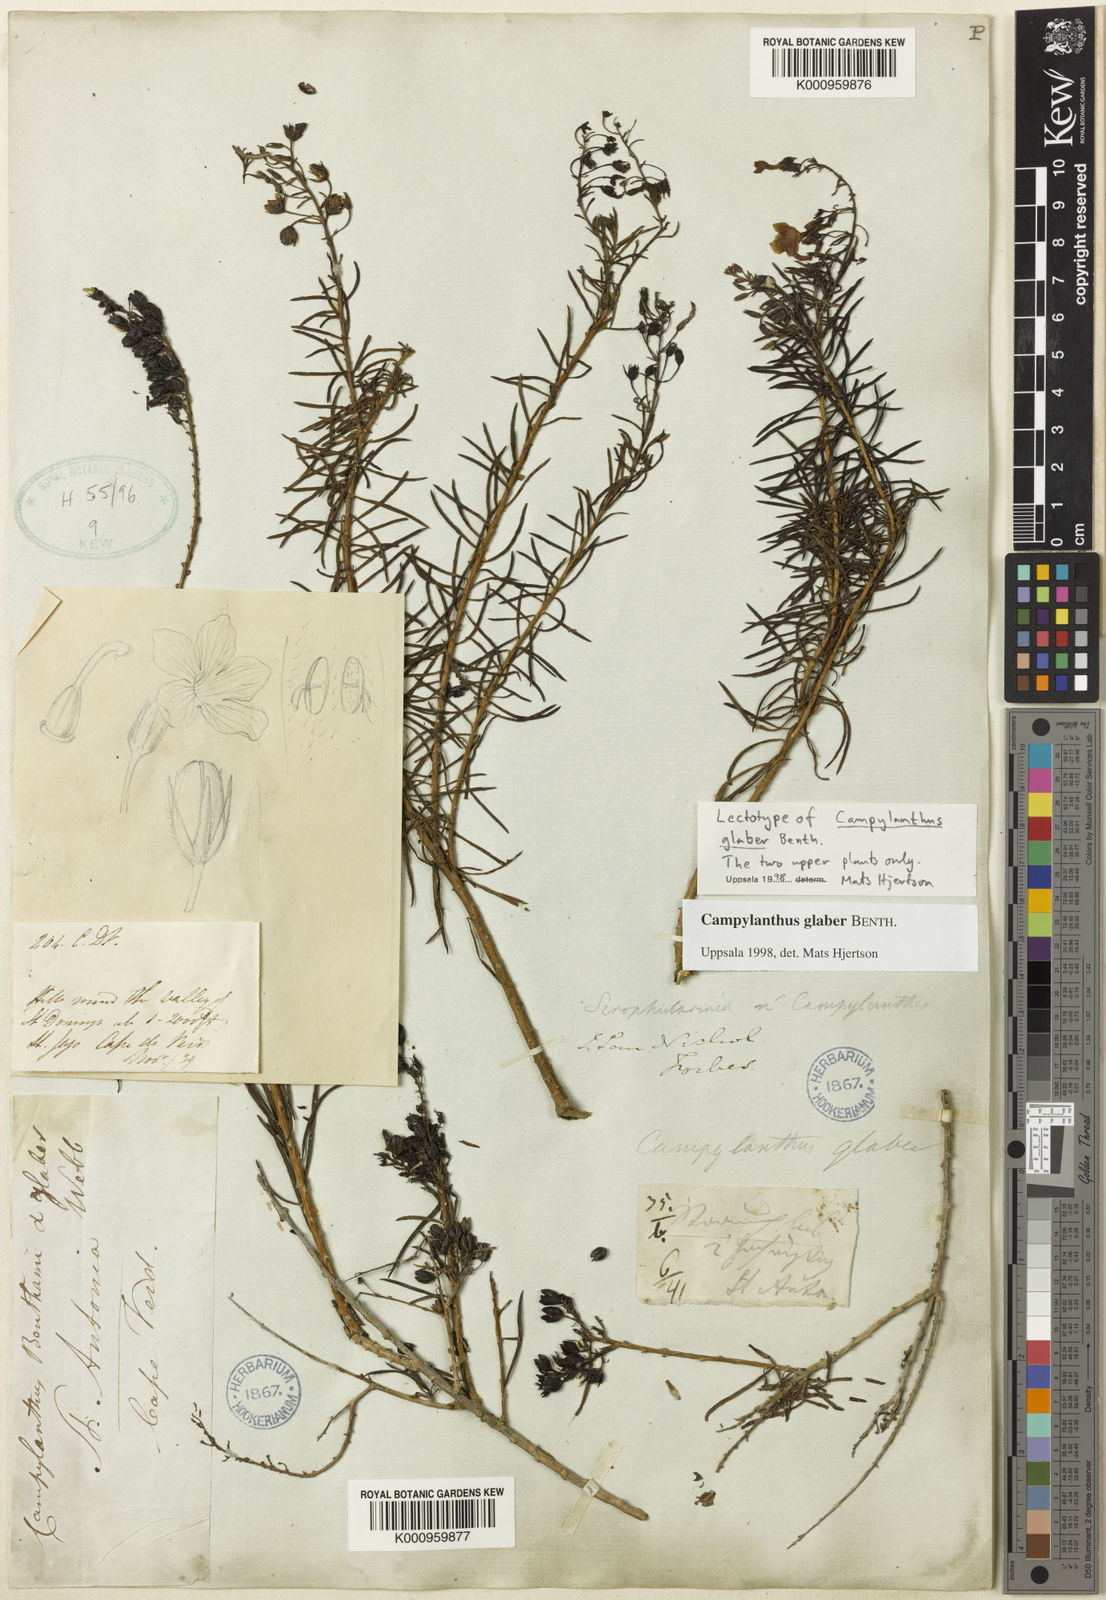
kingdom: Plantae
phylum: Tracheophyta
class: Magnoliopsida
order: Lamiales
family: Plantaginaceae
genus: Campylanthus
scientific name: Campylanthus glaber
